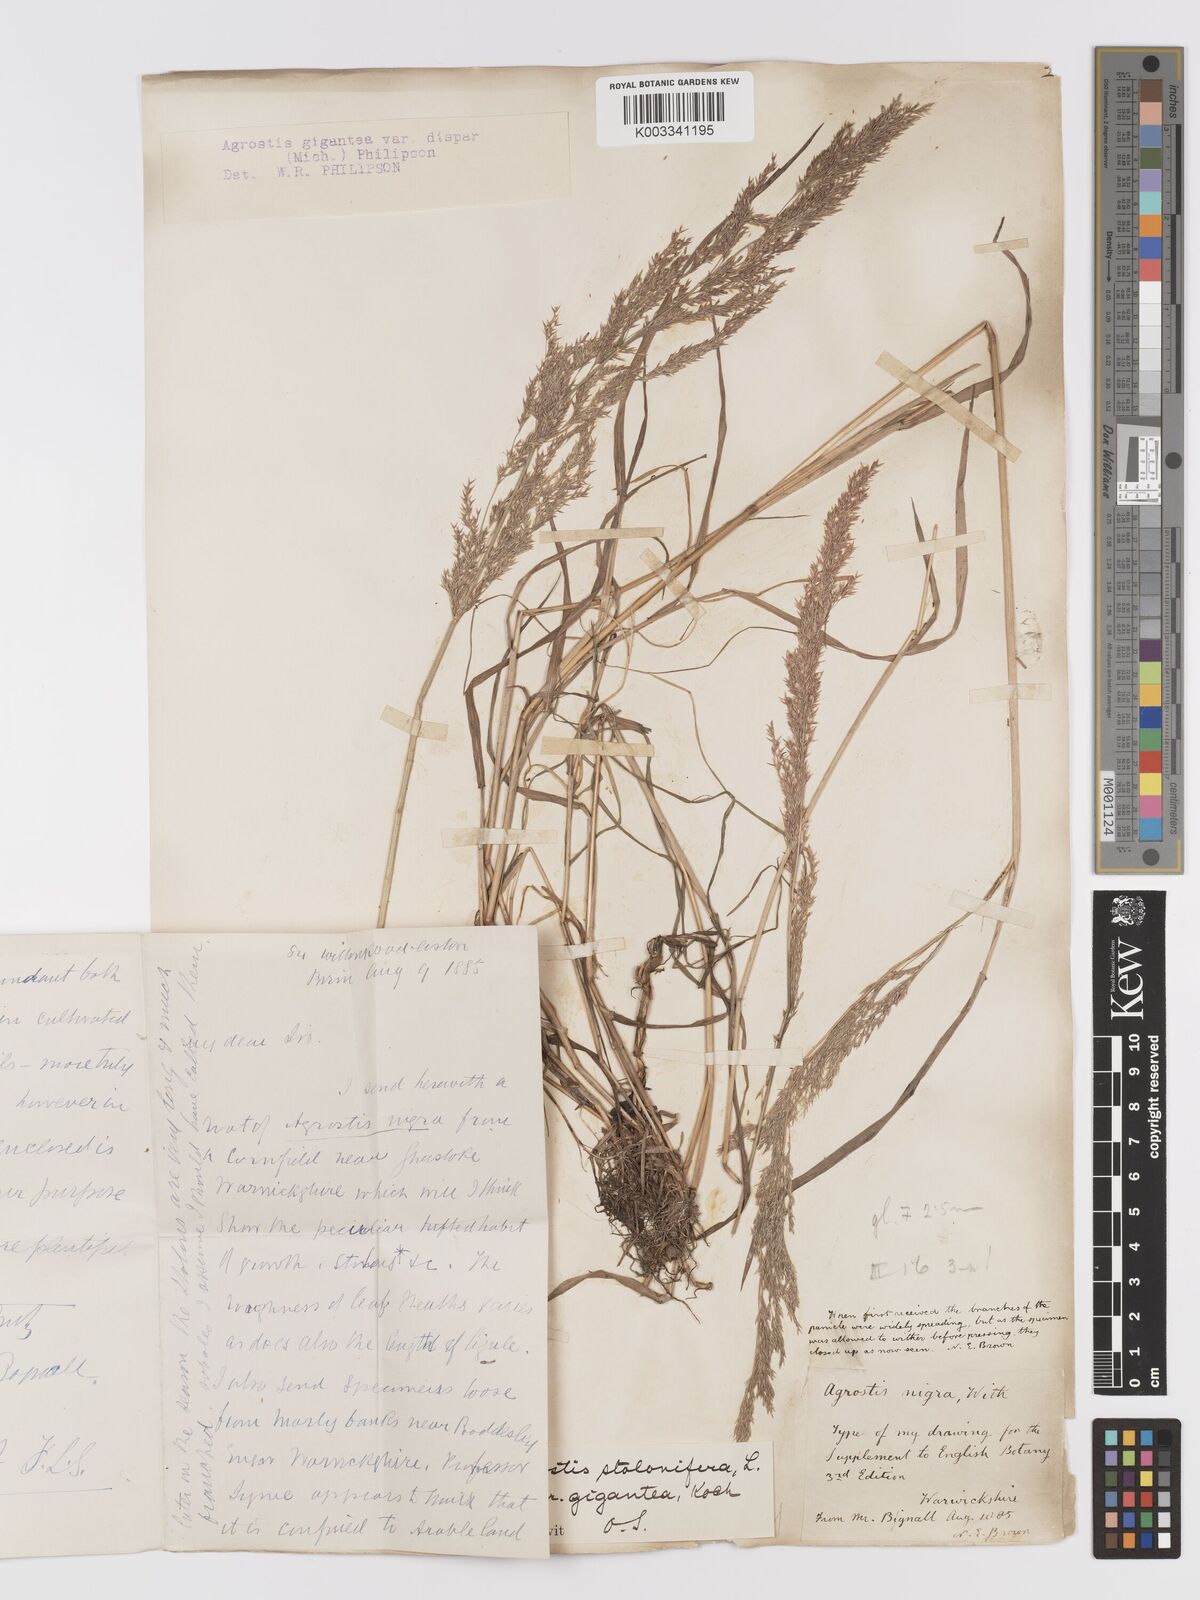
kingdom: Plantae
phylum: Tracheophyta
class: Liliopsida
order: Poales
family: Poaceae
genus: Agrostis
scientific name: Agrostis gigantea
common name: Black bent
